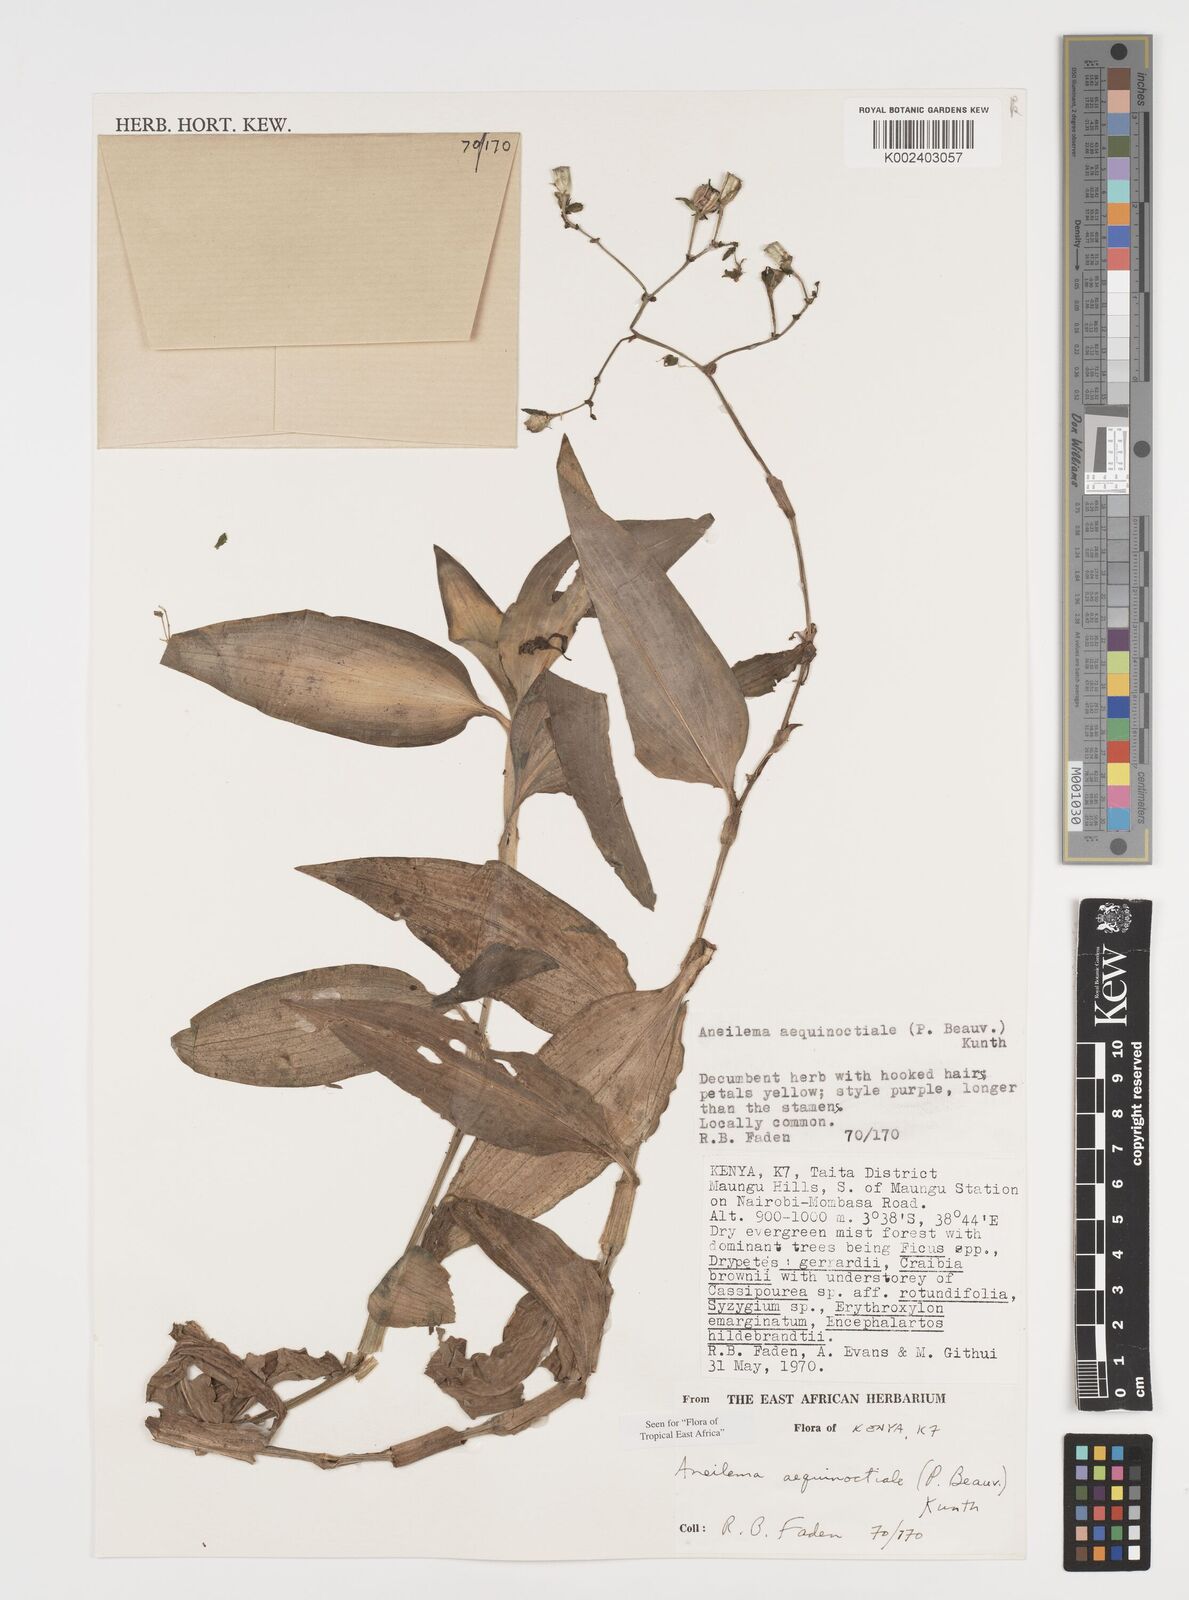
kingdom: Plantae
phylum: Tracheophyta
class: Liliopsida
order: Commelinales
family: Commelinaceae
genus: Aneilema
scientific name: Aneilema aequinoctiale
